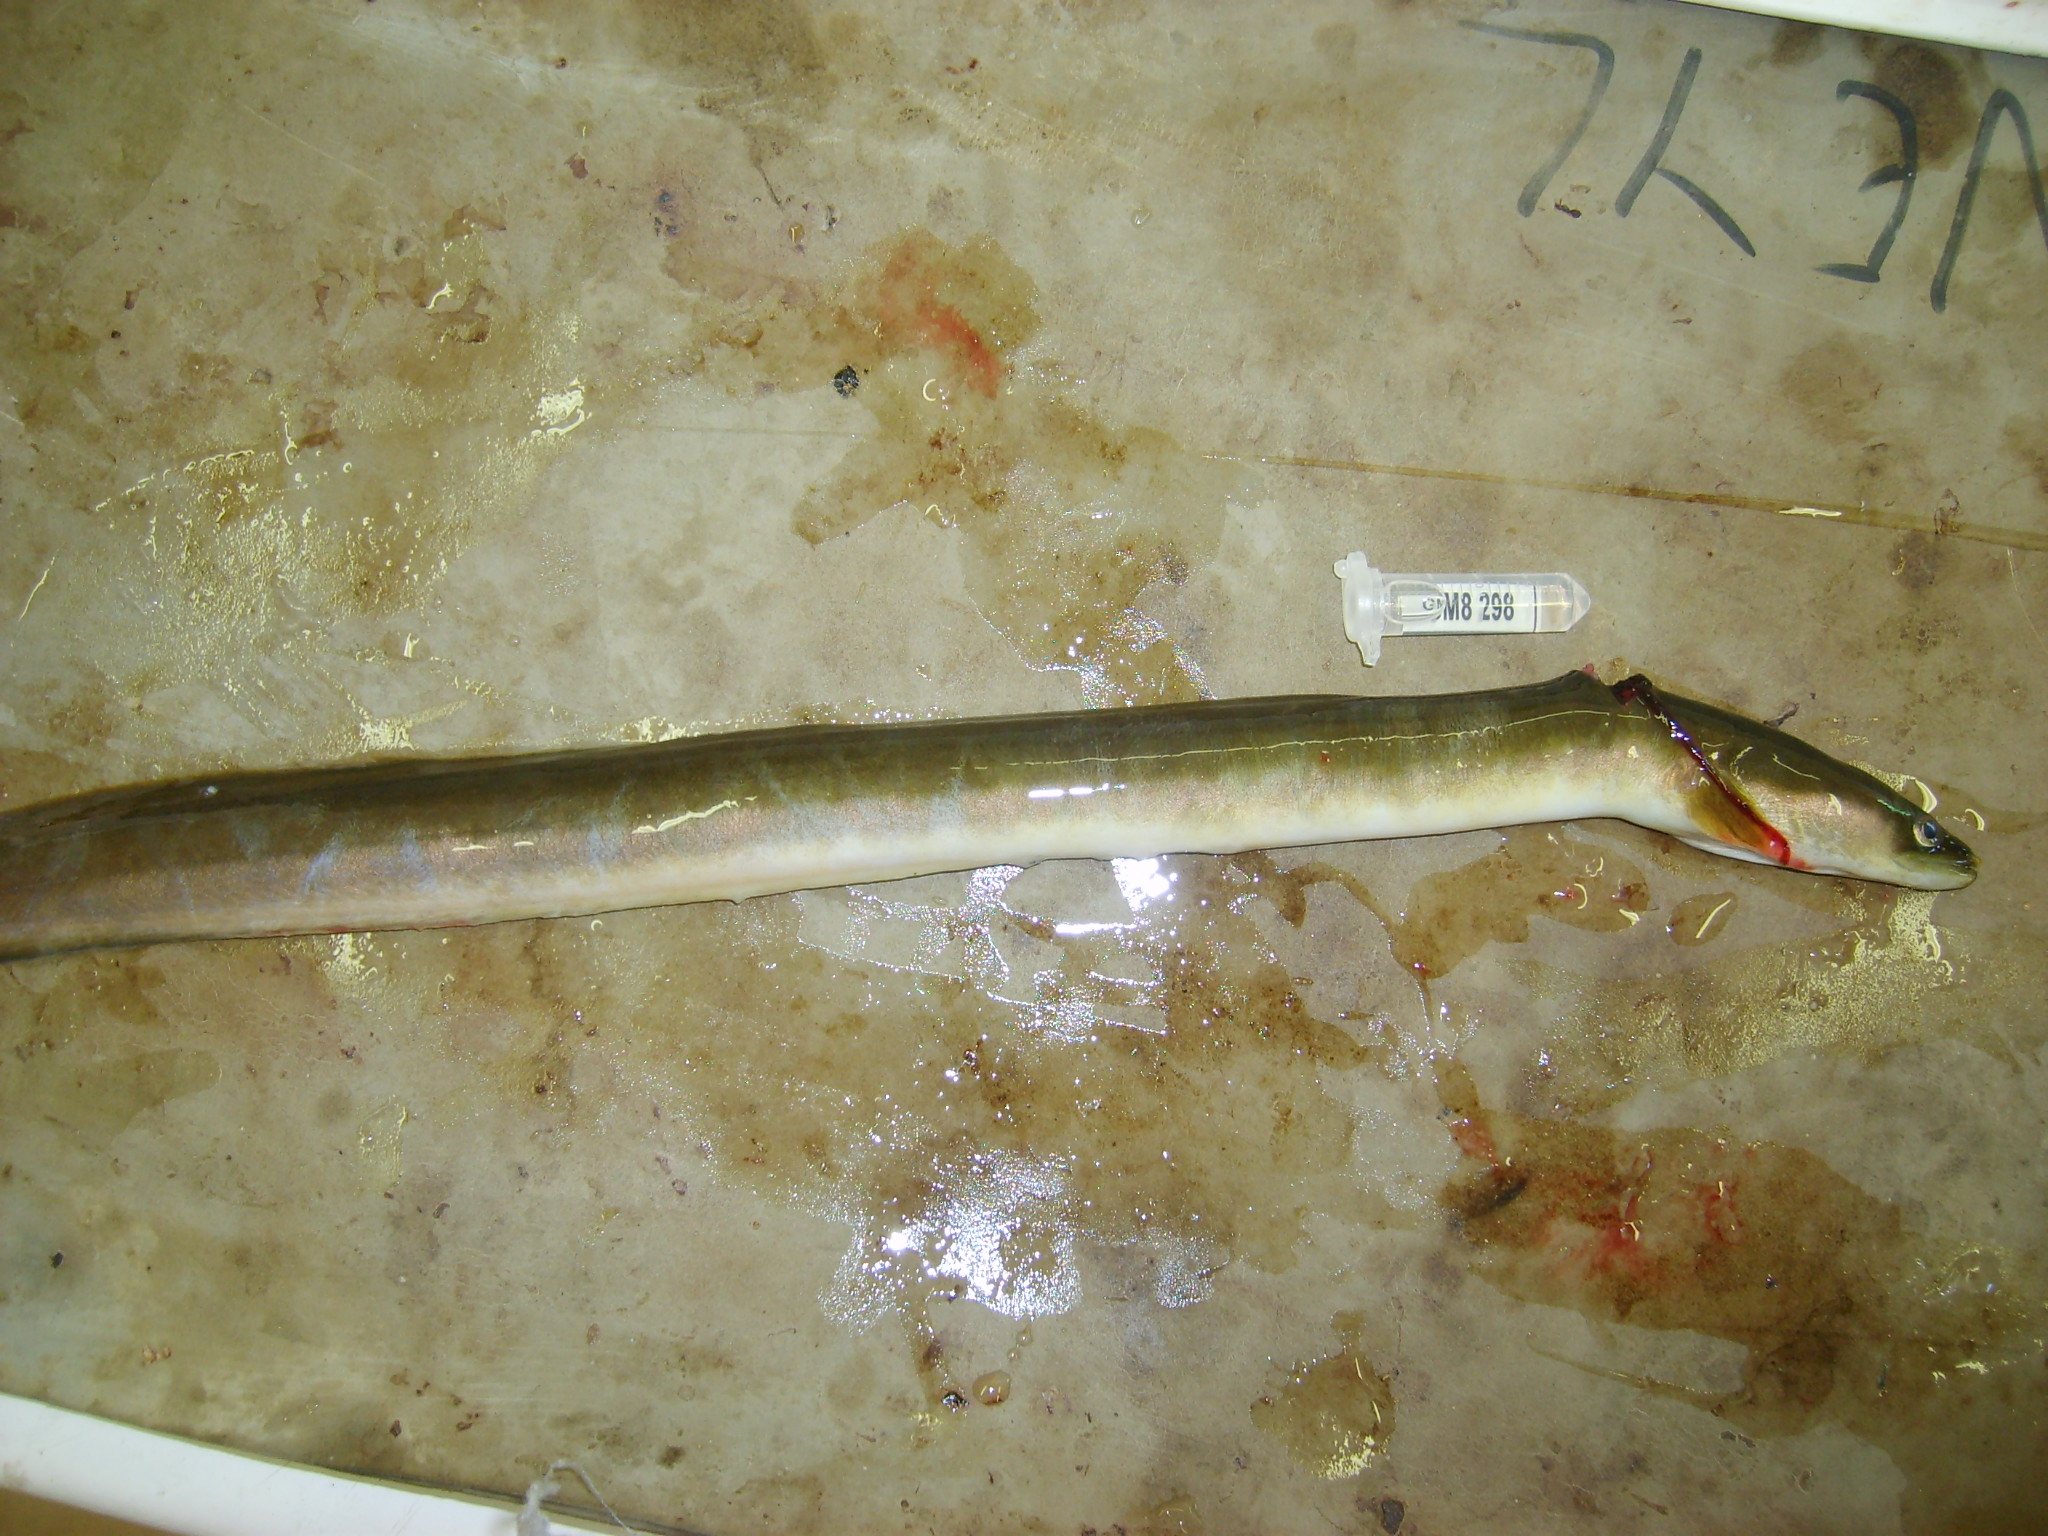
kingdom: Animalia
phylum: Chordata
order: Anguilliformes
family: Anguillidae
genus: Anguilla
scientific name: Anguilla mossambica
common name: African longfin eel
